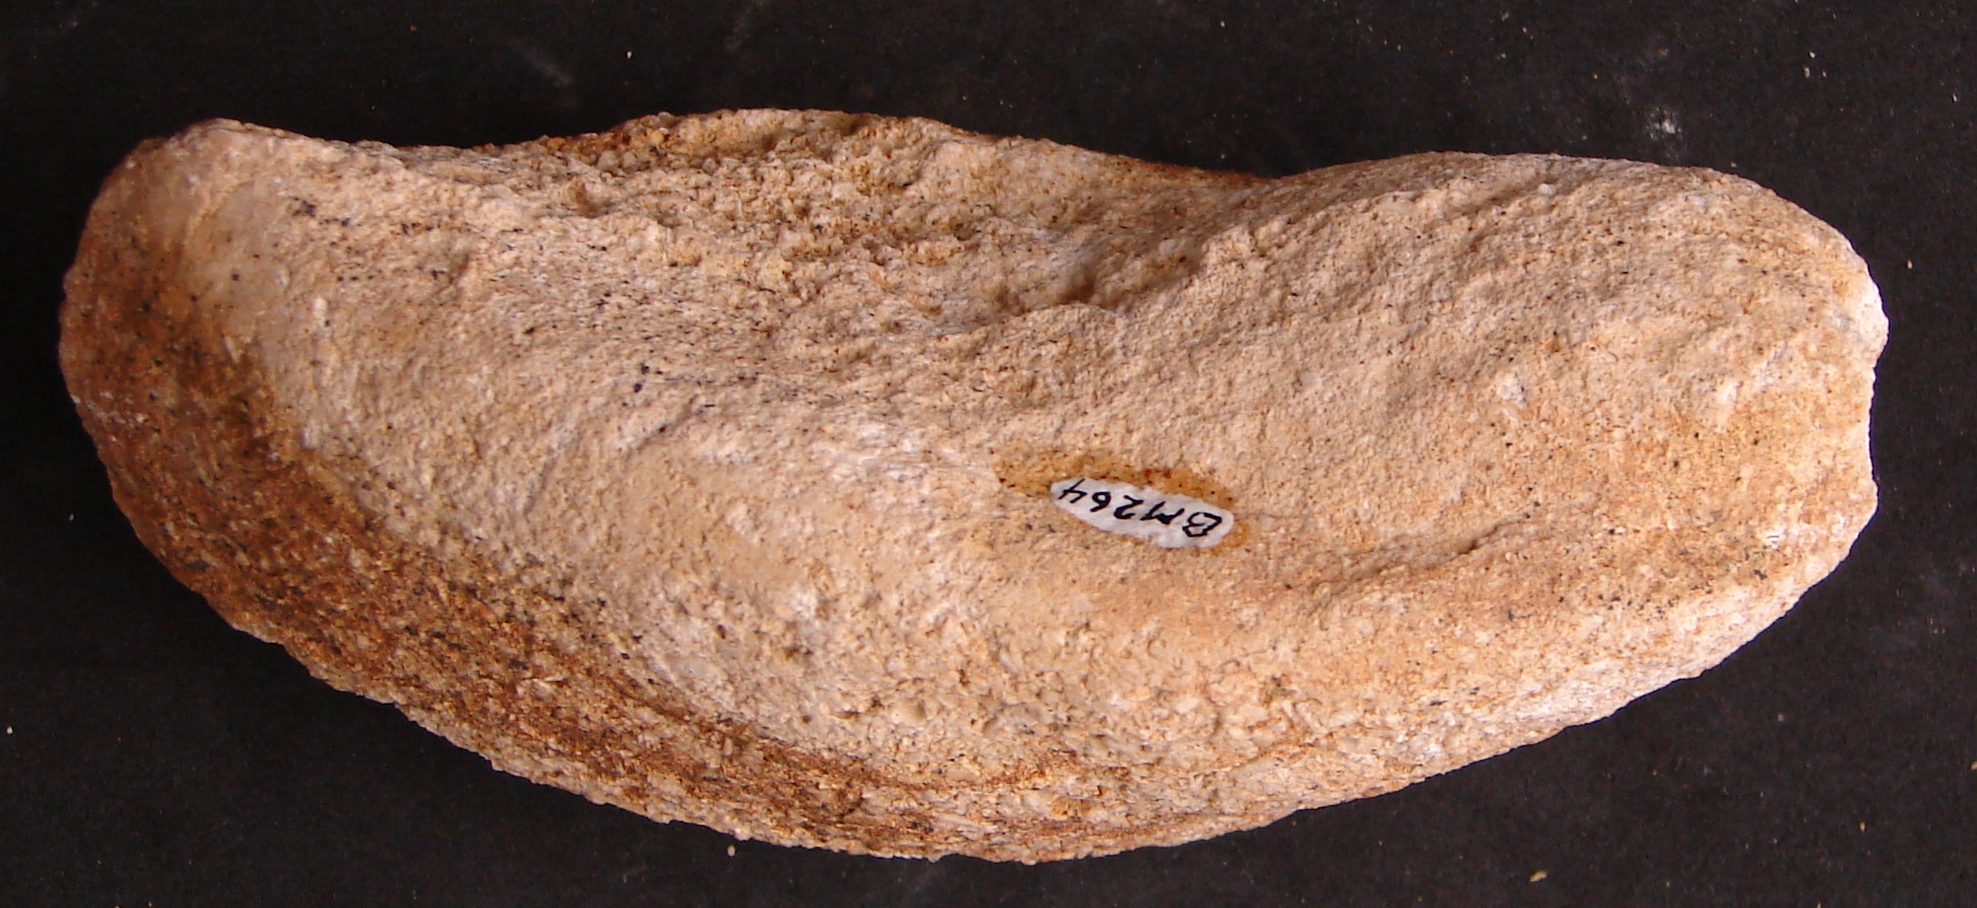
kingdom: Animalia
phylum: Mollusca
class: Bivalvia
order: Mytilida
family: Mytilidae
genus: Modiolus
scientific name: Modiolus
